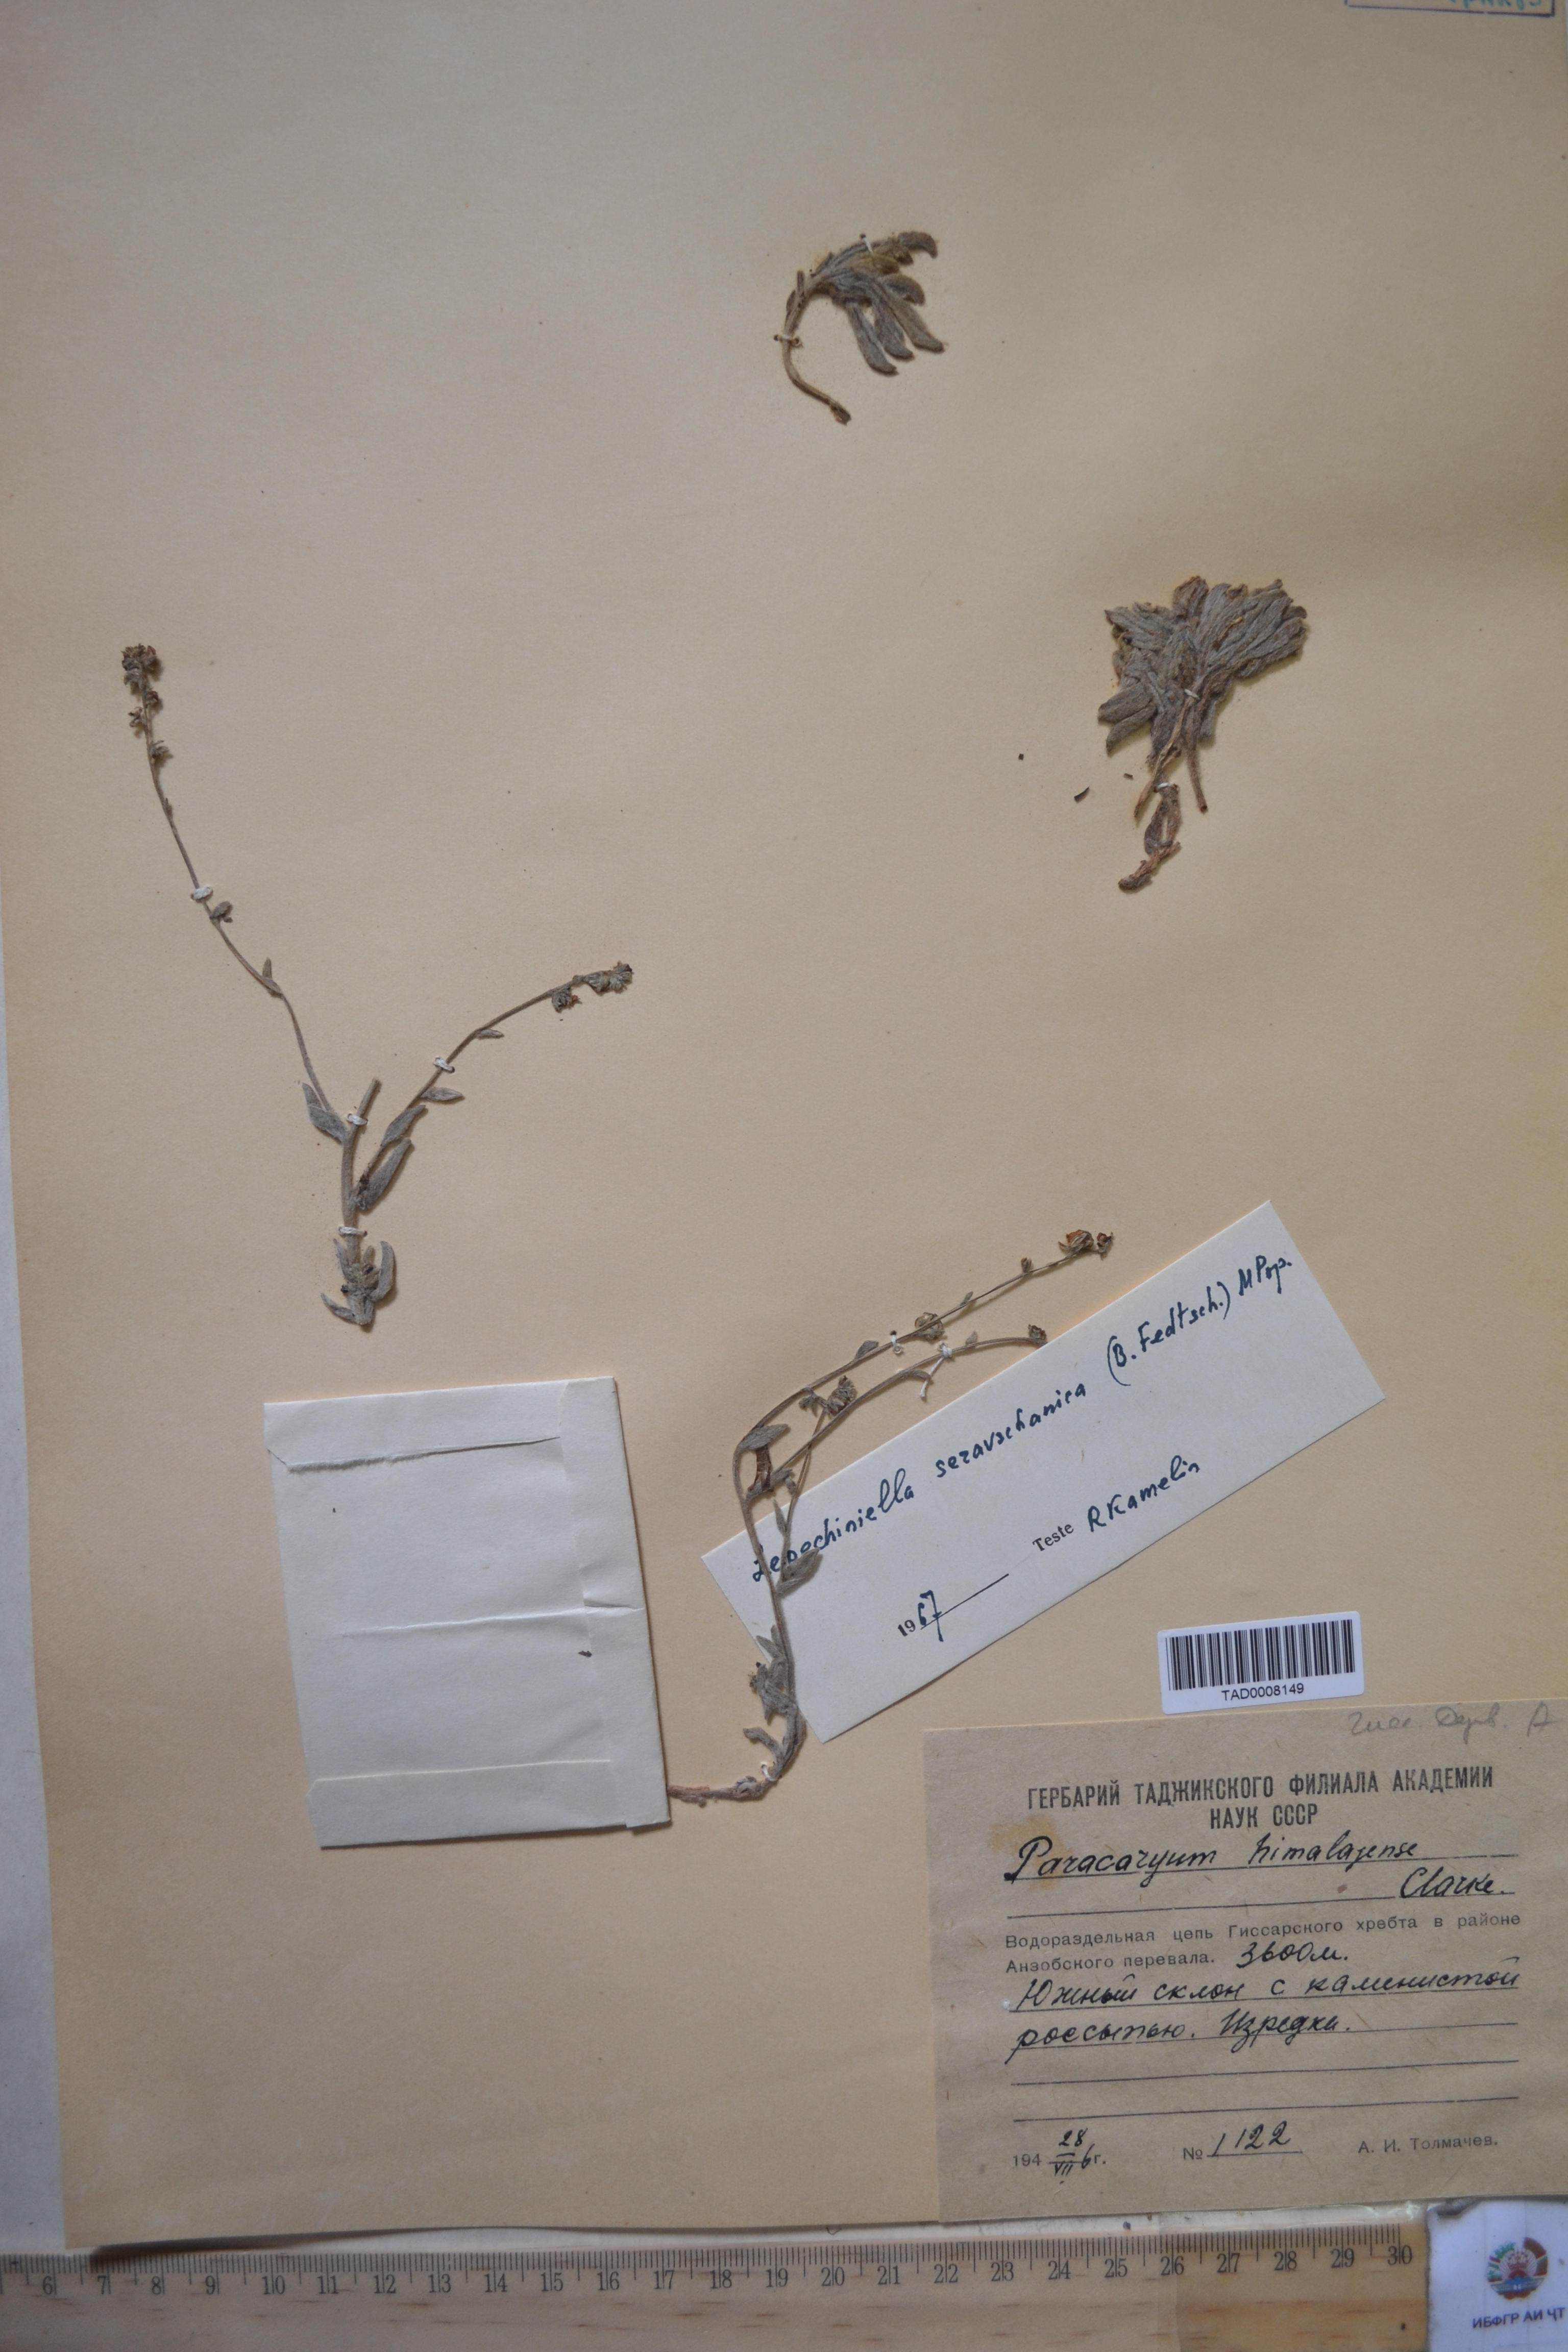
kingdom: Plantae
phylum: Tracheophyta
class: Magnoliopsida
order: Boraginales
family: Boraginaceae
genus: Paracaryum
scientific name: Paracaryum himalayense
